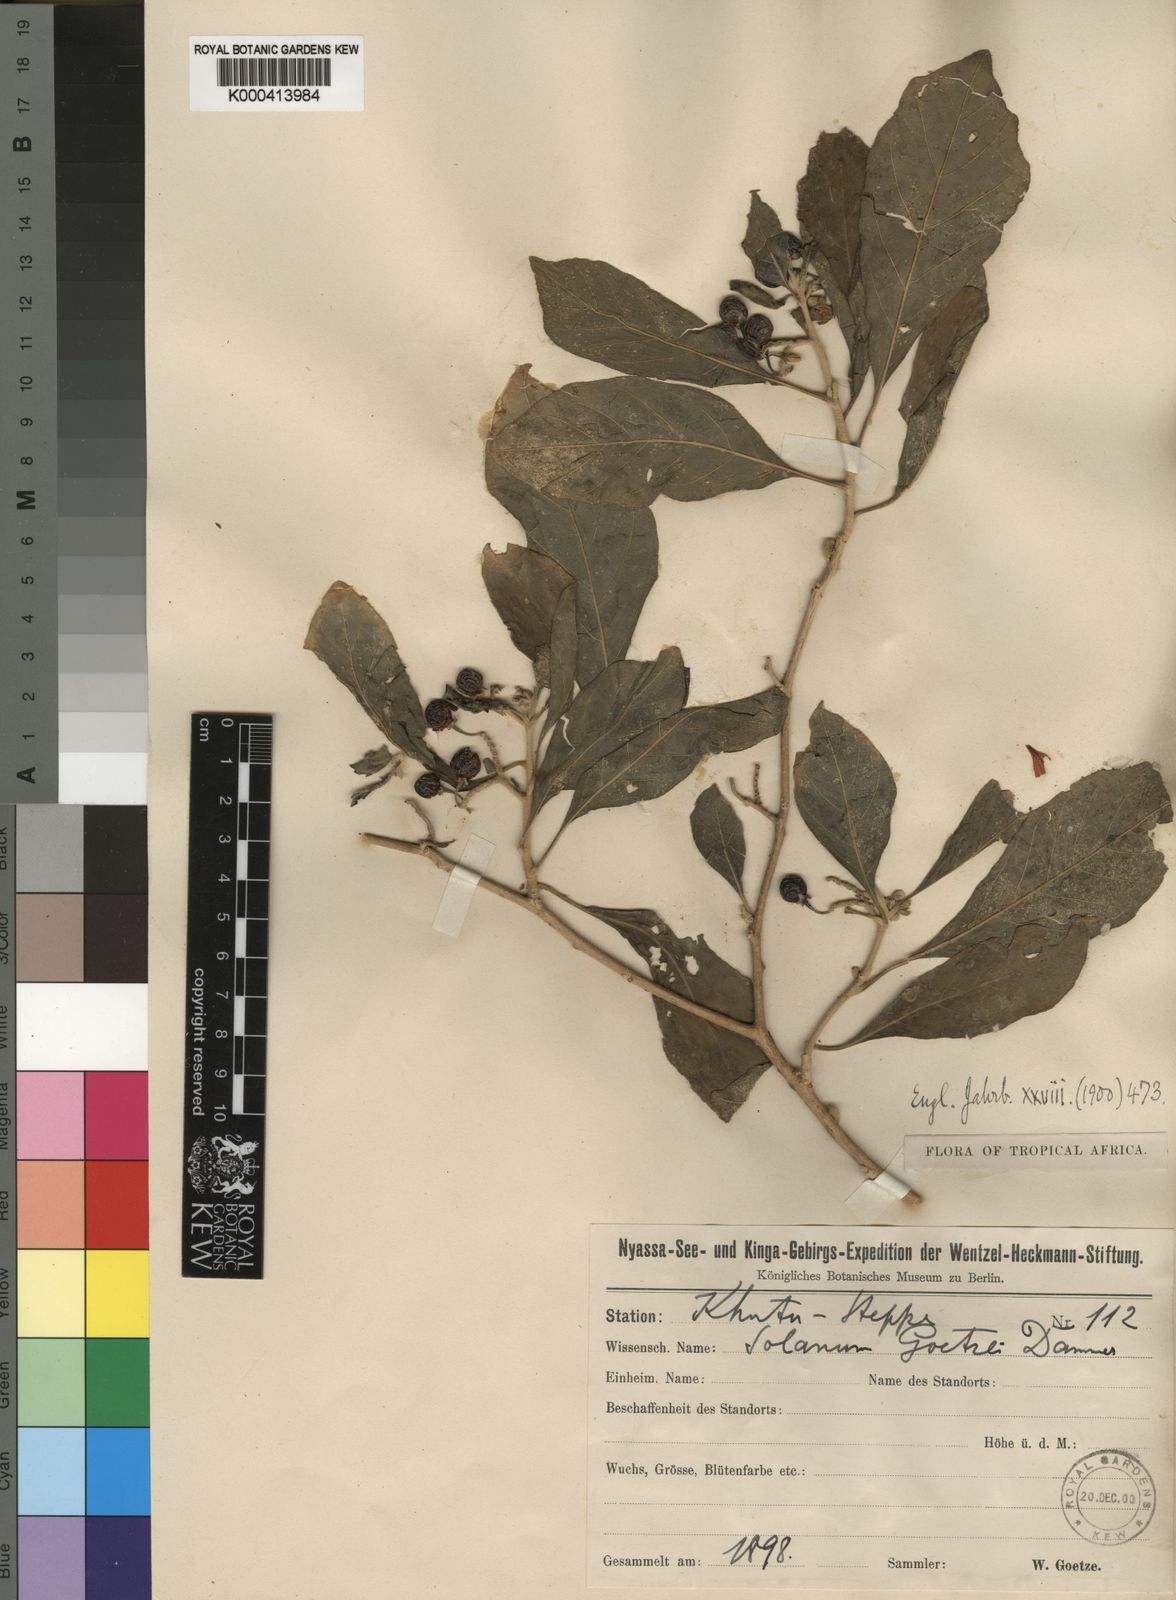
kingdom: Plantae
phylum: Tracheophyta
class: Magnoliopsida
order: Solanales
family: Solanaceae
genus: Solanum
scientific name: Solanum goetzei
